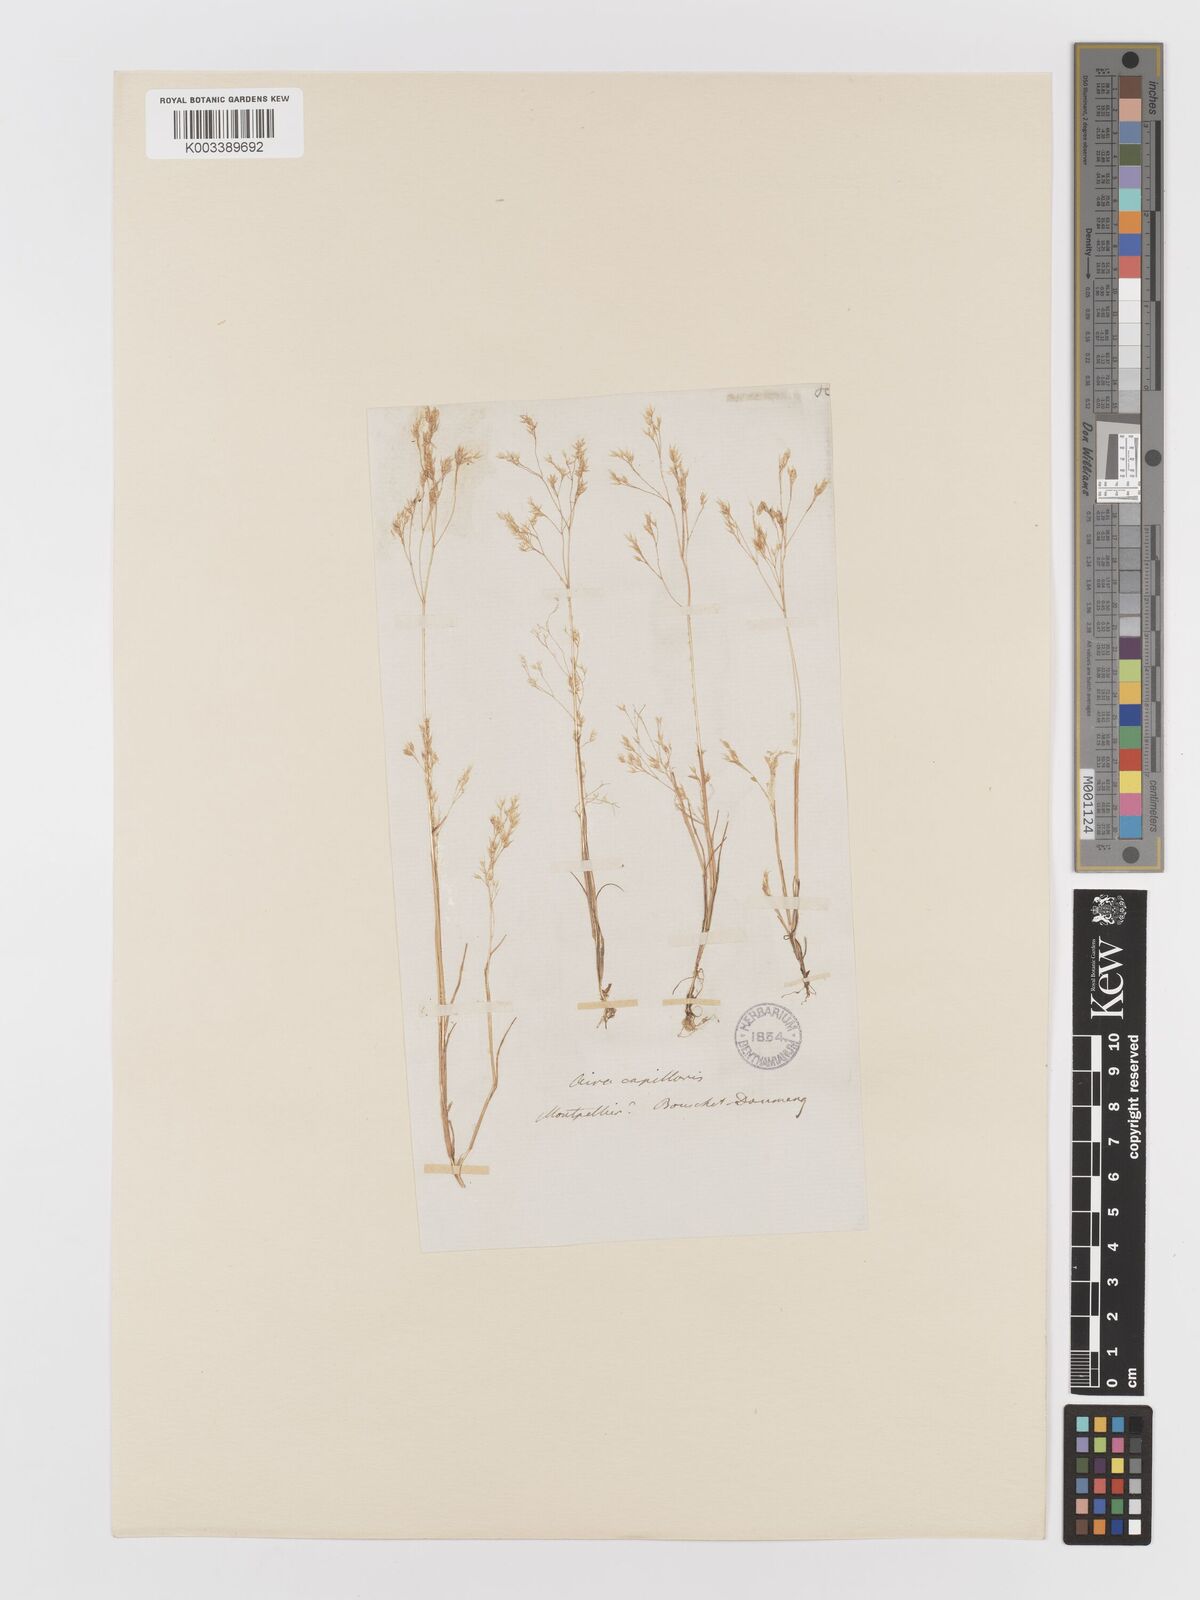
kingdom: Plantae
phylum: Tracheophyta
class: Liliopsida
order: Poales
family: Poaceae
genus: Aira
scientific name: Aira caryophyllea
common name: Silver hairgrass
